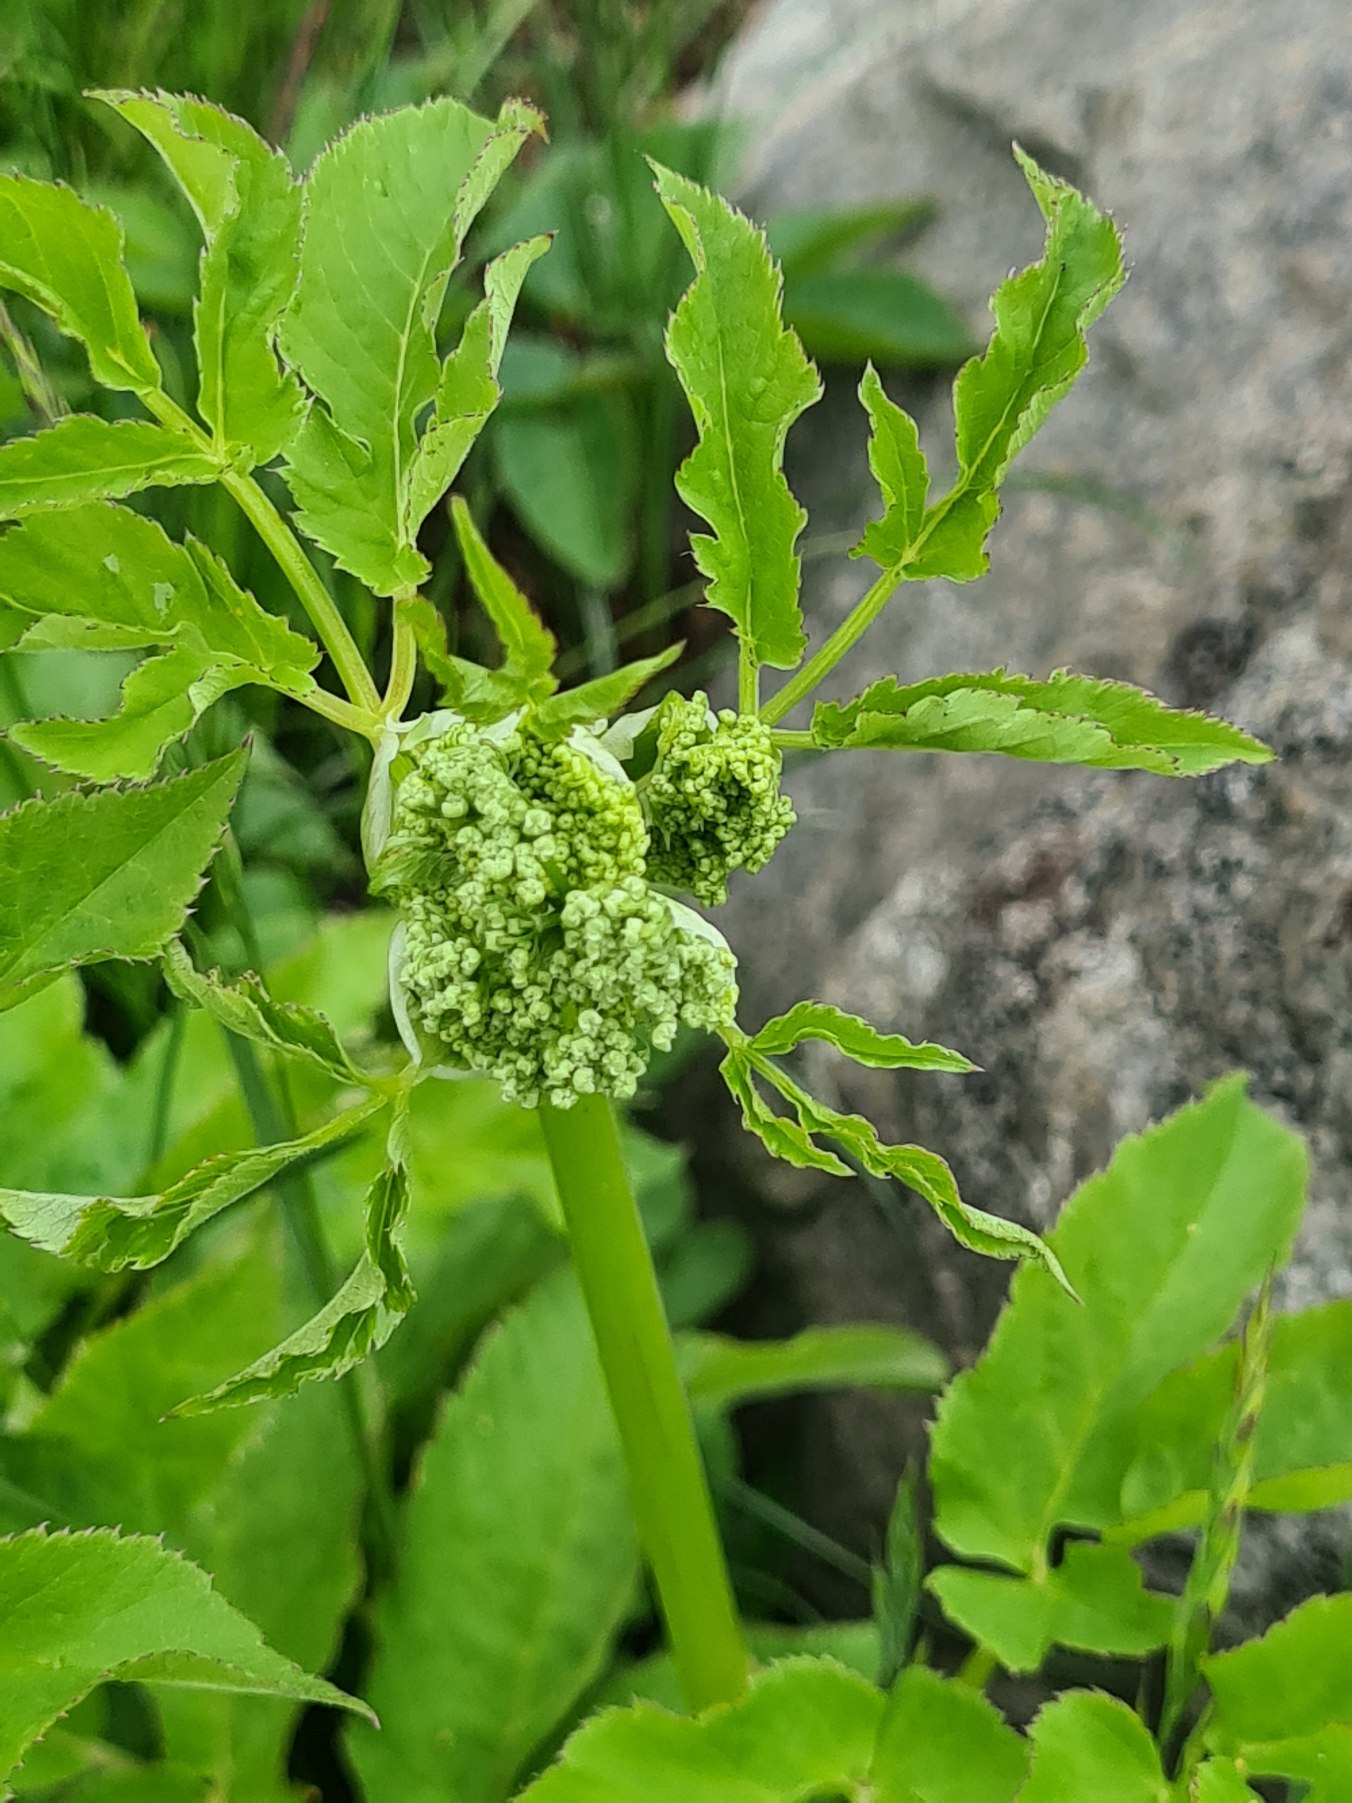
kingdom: Plantae
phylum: Tracheophyta
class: Magnoliopsida
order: Apiales
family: Apiaceae
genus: Aegopodium
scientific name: Aegopodium podagraria
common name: Skvalderkål
